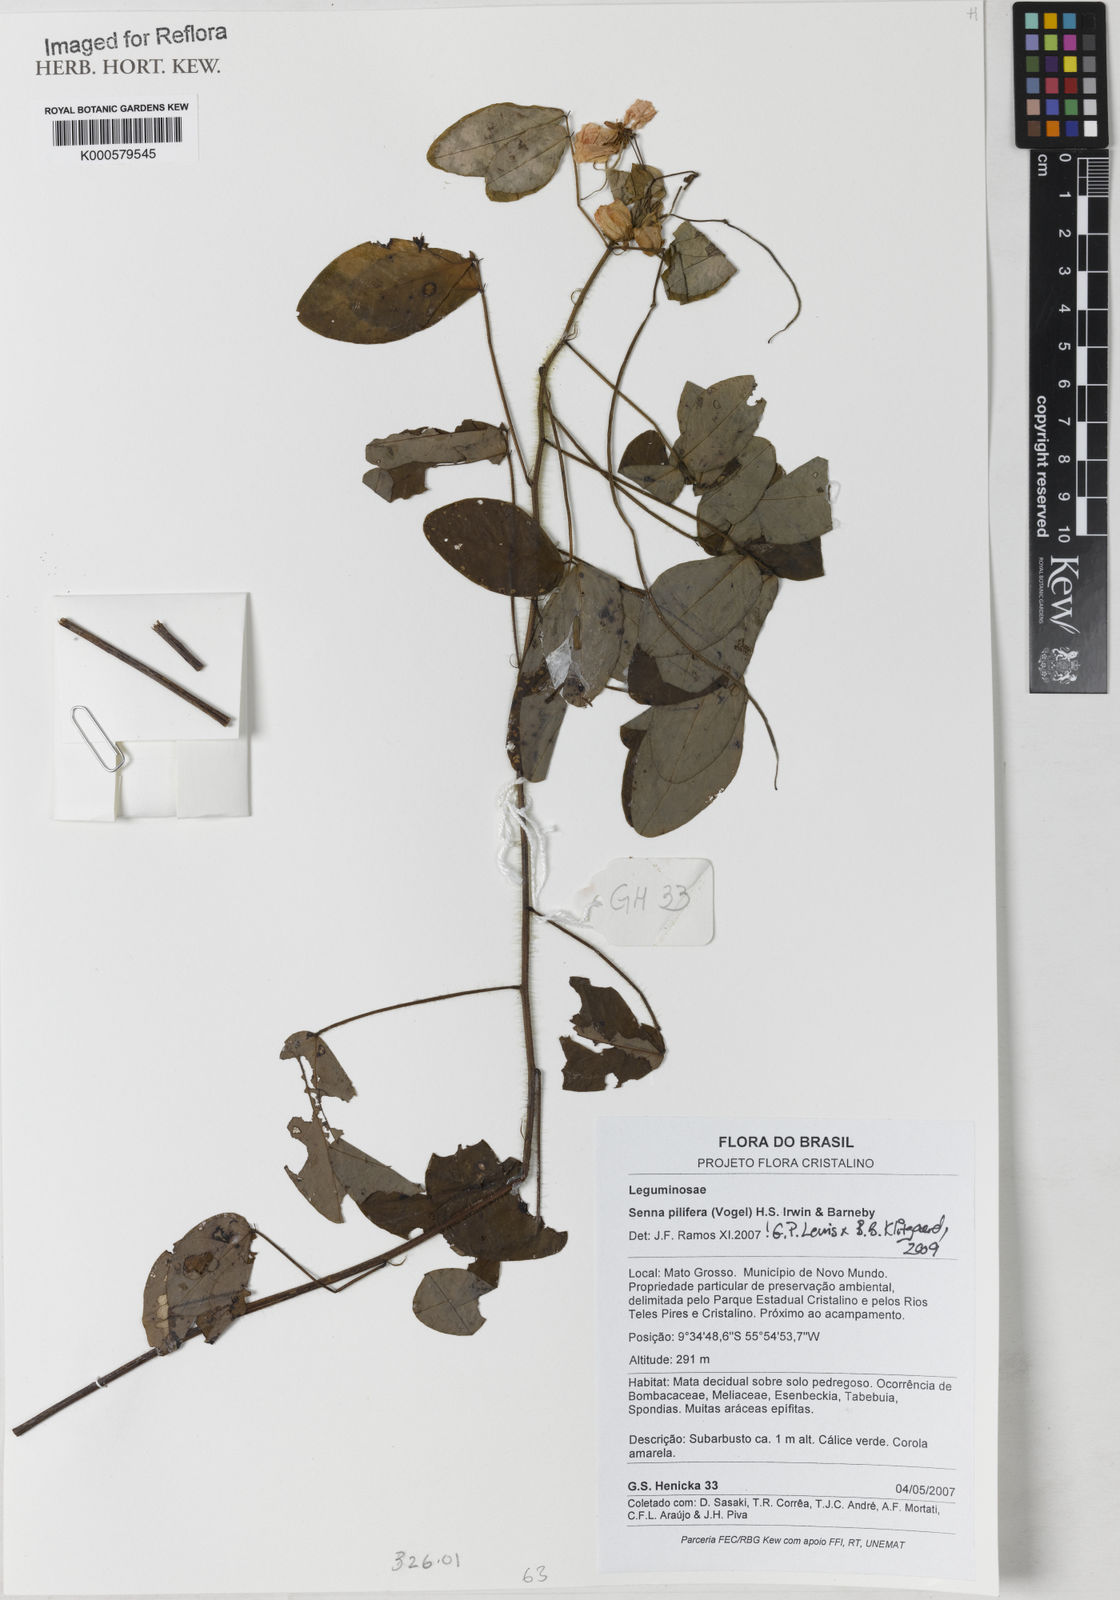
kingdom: Plantae
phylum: Tracheophyta
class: Magnoliopsida
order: Fabales
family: Fabaceae
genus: Senna
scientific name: Senna pilifera
